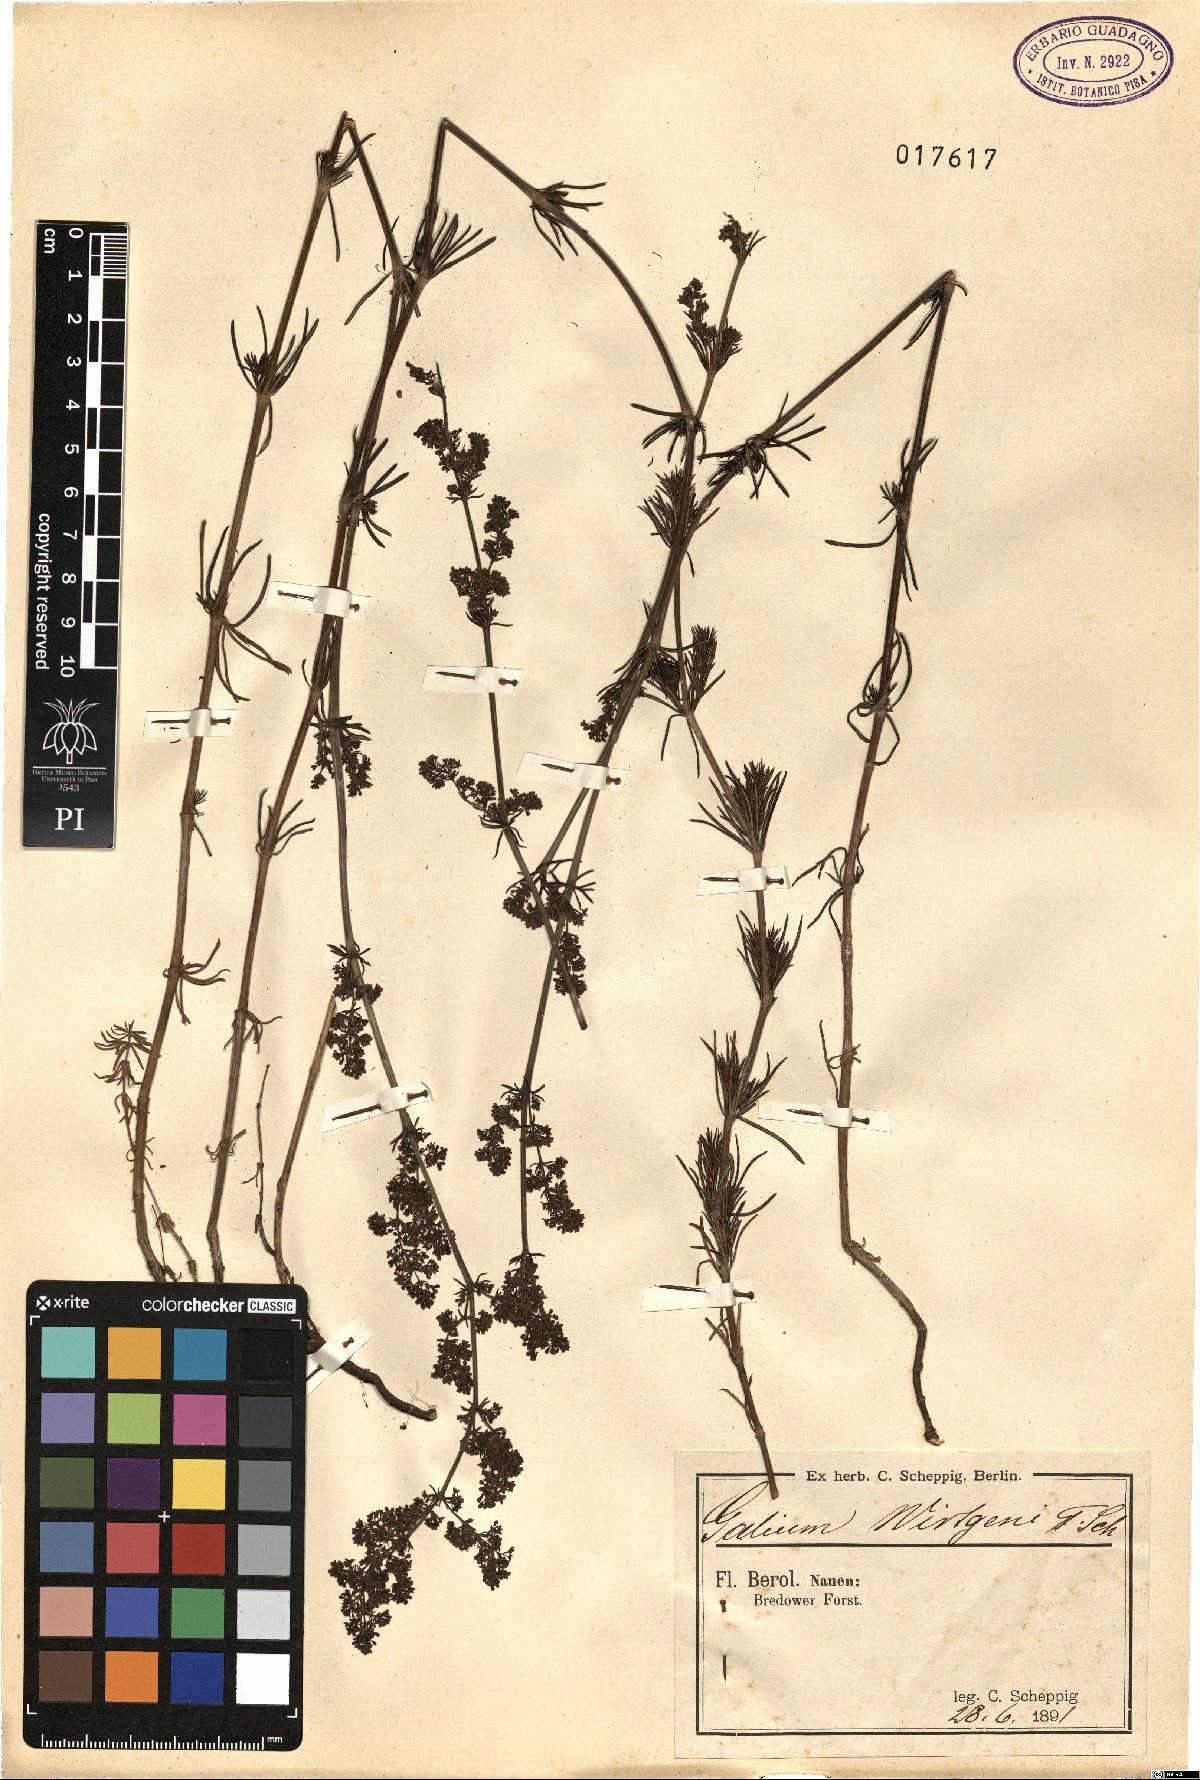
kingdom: Plantae
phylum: Tracheophyta
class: Magnoliopsida
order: Gentianales
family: Rubiaceae
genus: Galium
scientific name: Galium verum
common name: Lady's bedstraw
